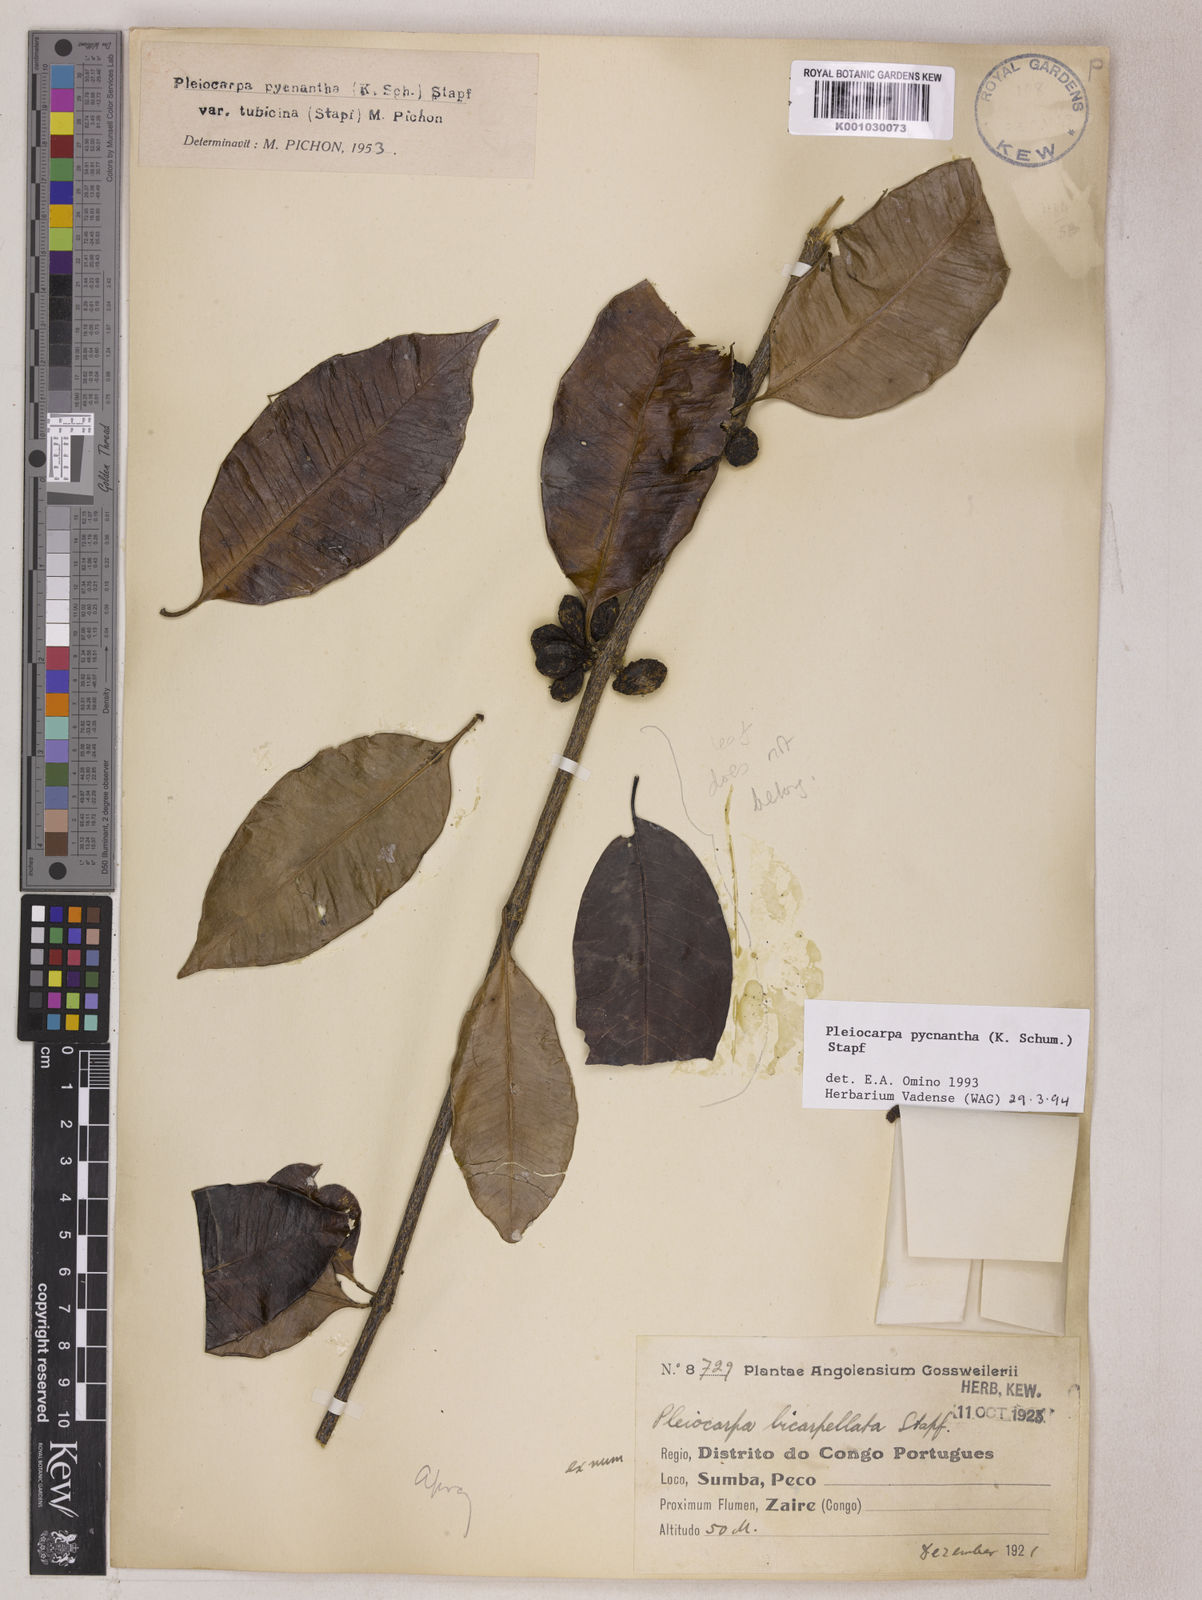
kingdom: Plantae
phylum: Tracheophyta
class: Magnoliopsida
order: Gentianales
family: Apocynaceae
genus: Pleiocarpa
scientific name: Pleiocarpa pycnantha
